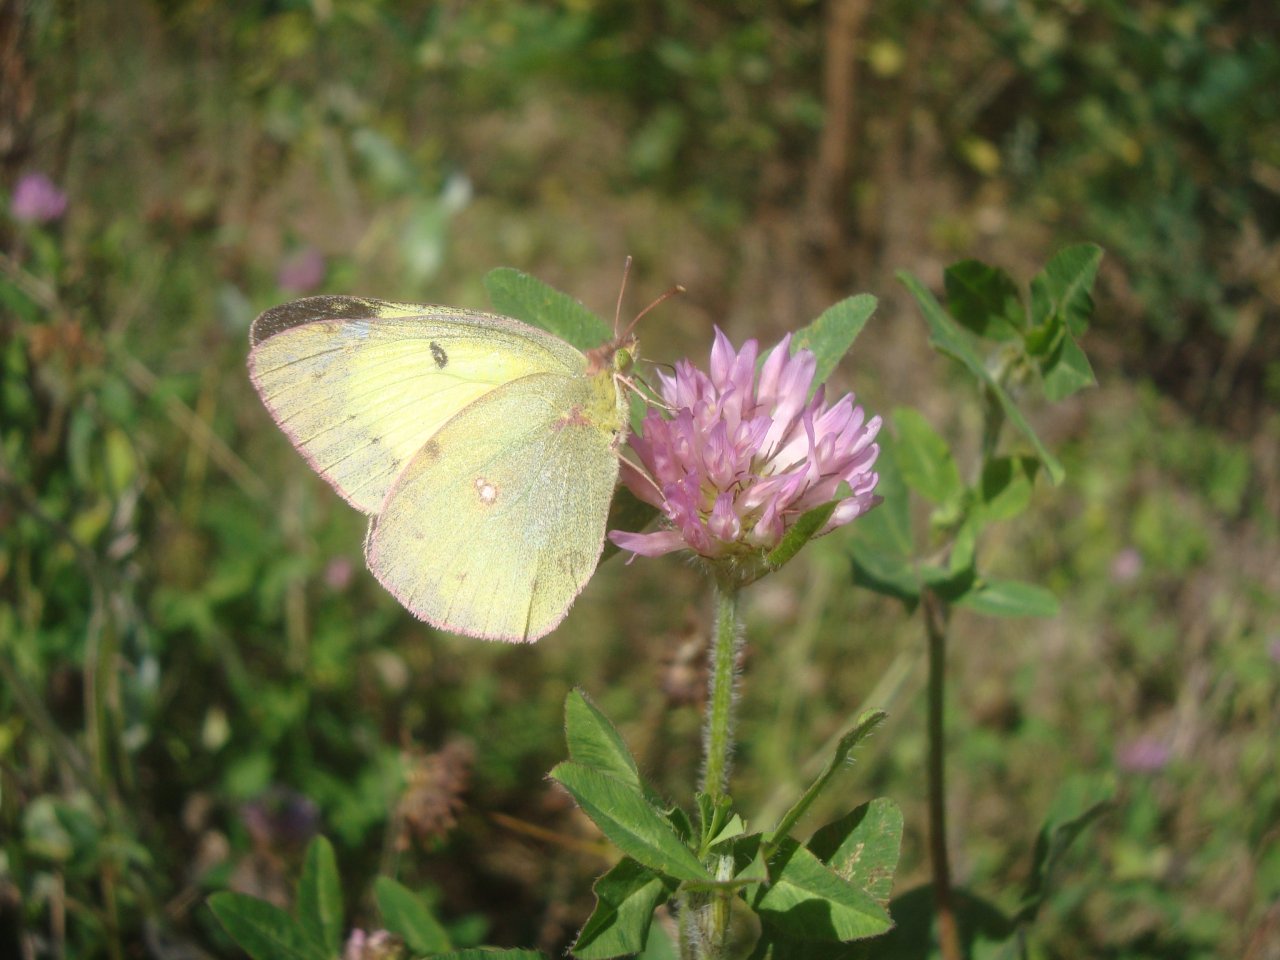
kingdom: Animalia
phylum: Arthropoda
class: Insecta
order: Lepidoptera
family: Pieridae
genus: Colias
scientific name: Colias philodice
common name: Clouded Sulphur
